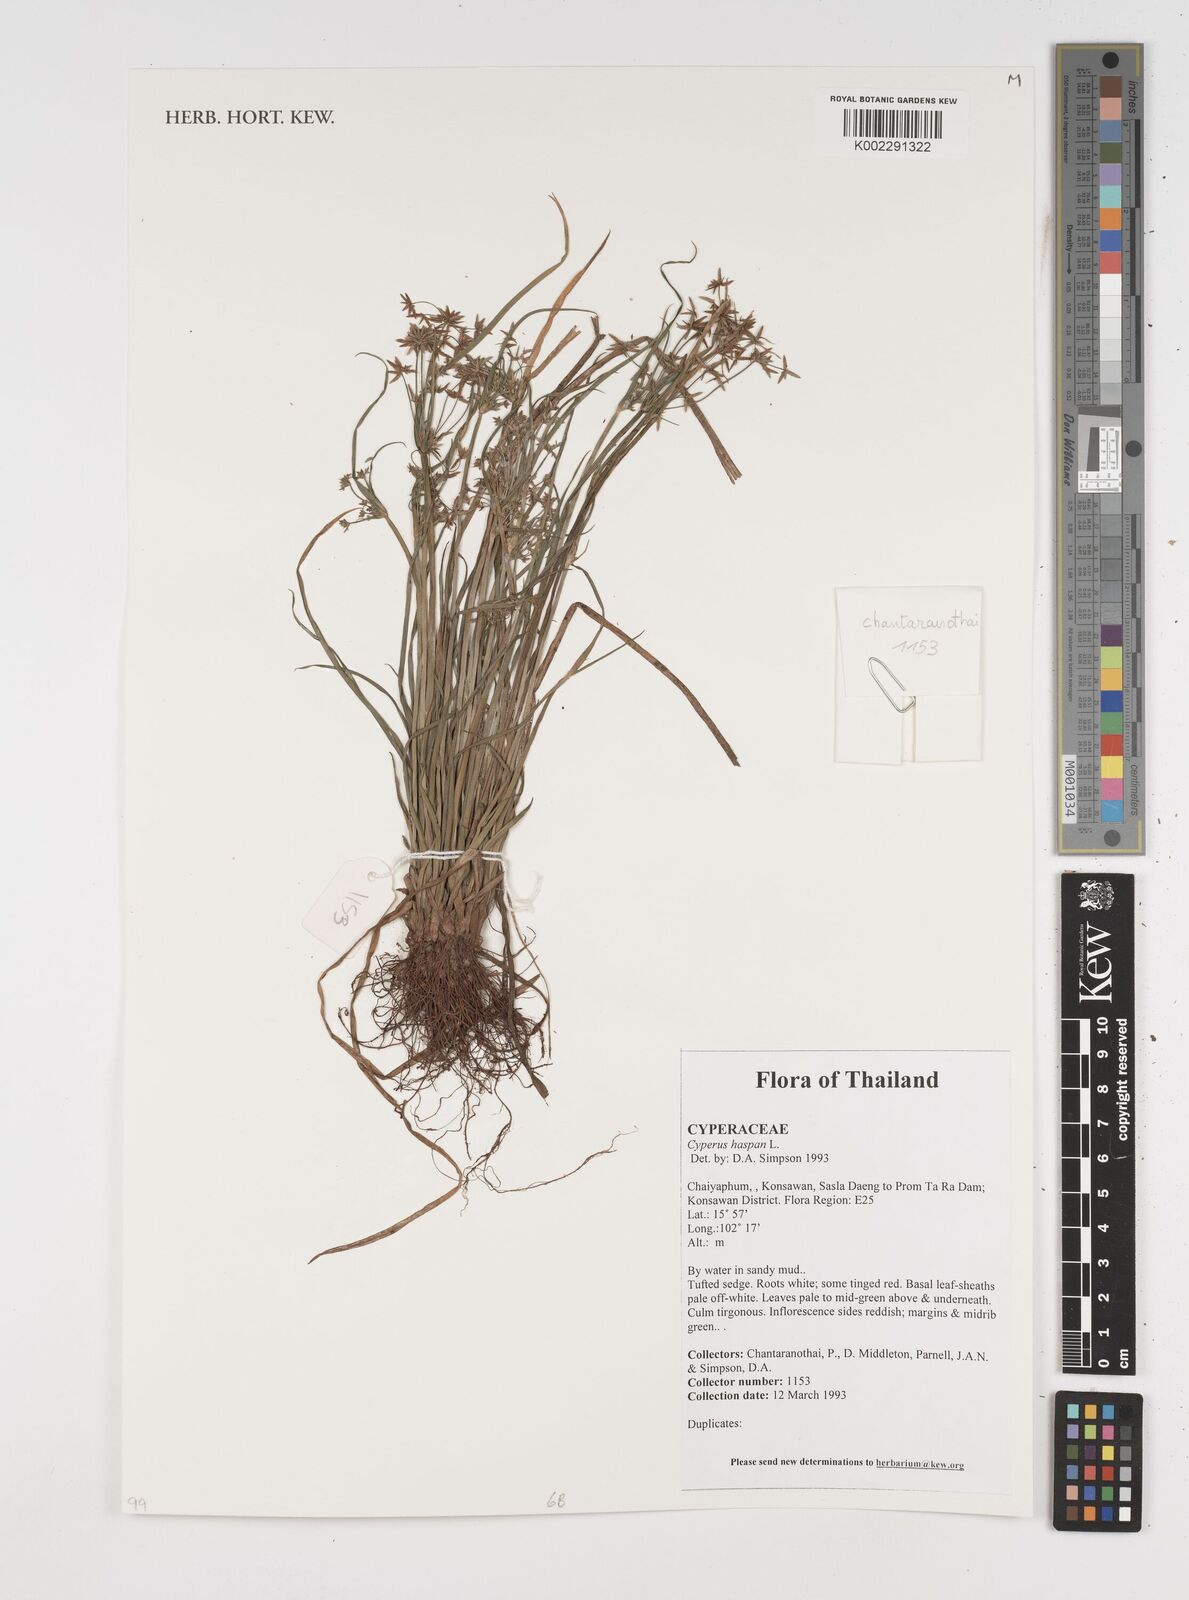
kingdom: Plantae
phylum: Tracheophyta
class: Liliopsida
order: Poales
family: Cyperaceae
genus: Cyperus
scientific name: Cyperus haspan
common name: Haspan flatsedge
